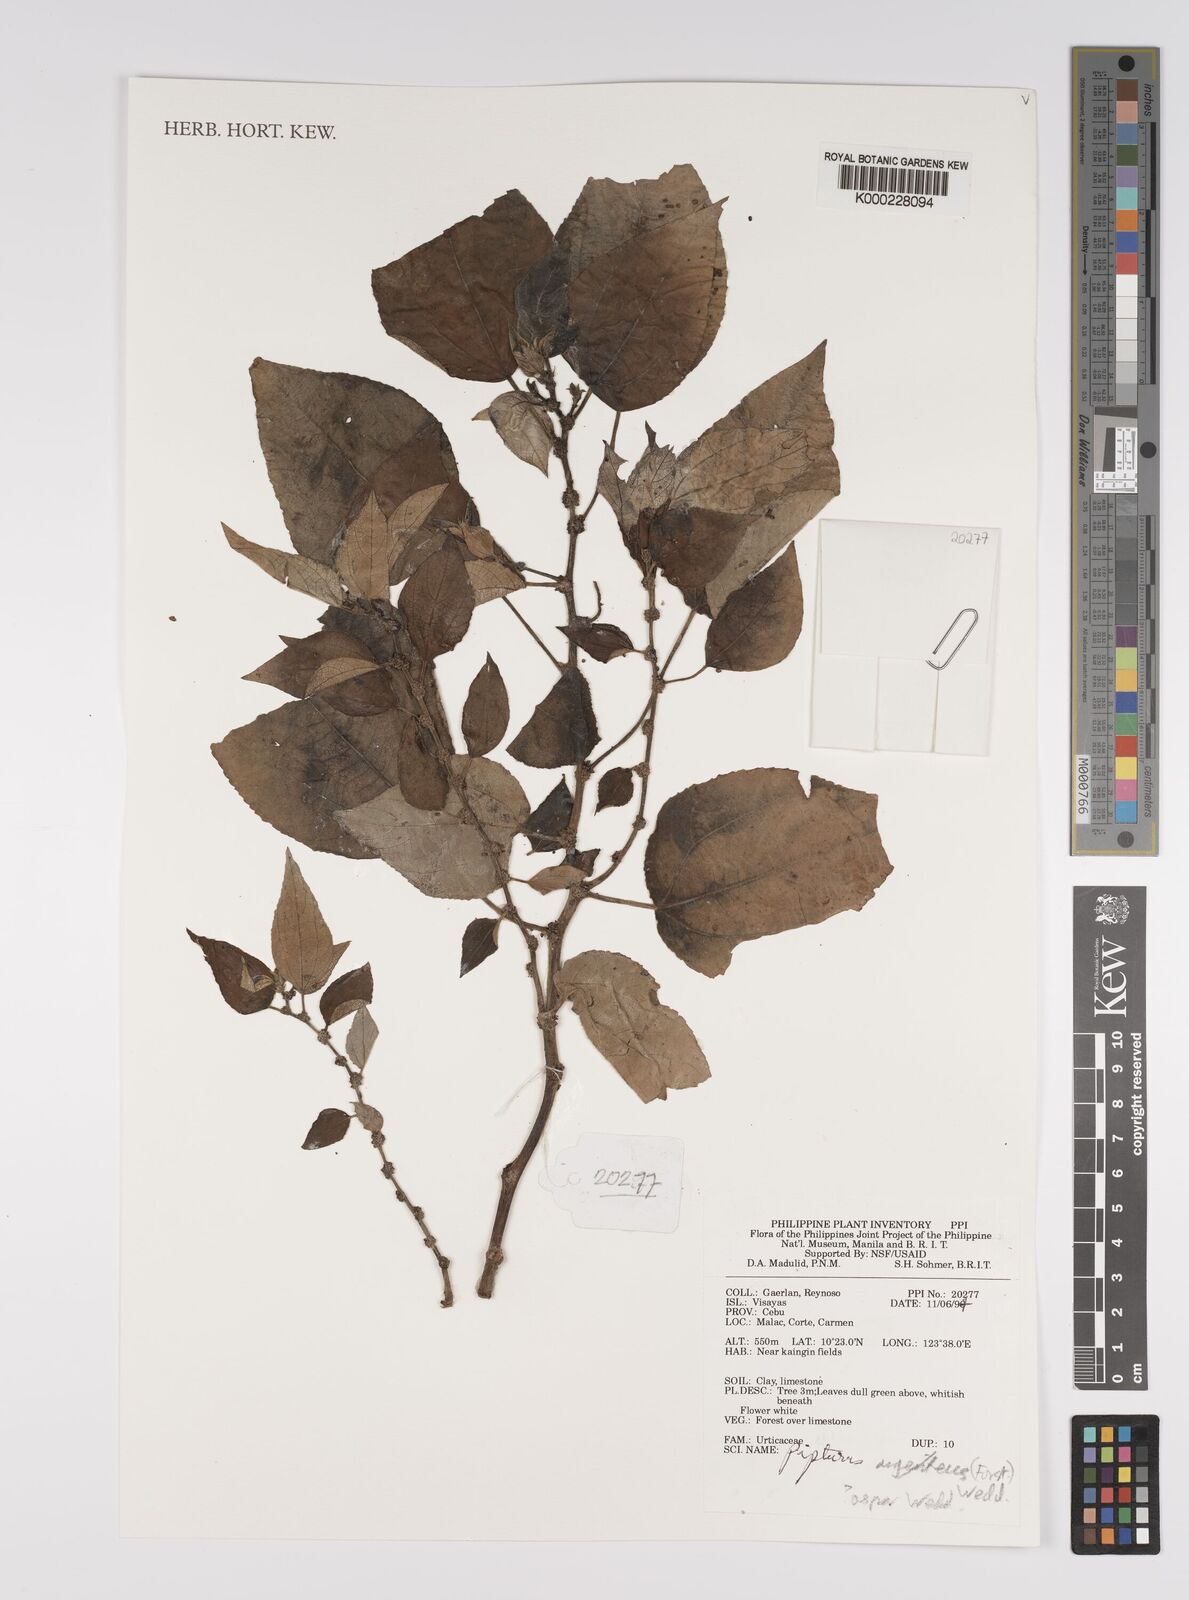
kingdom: Plantae
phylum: Tracheophyta
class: Magnoliopsida
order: Rosales
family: Urticaceae
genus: Pipturus
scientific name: Pipturus argenteus
